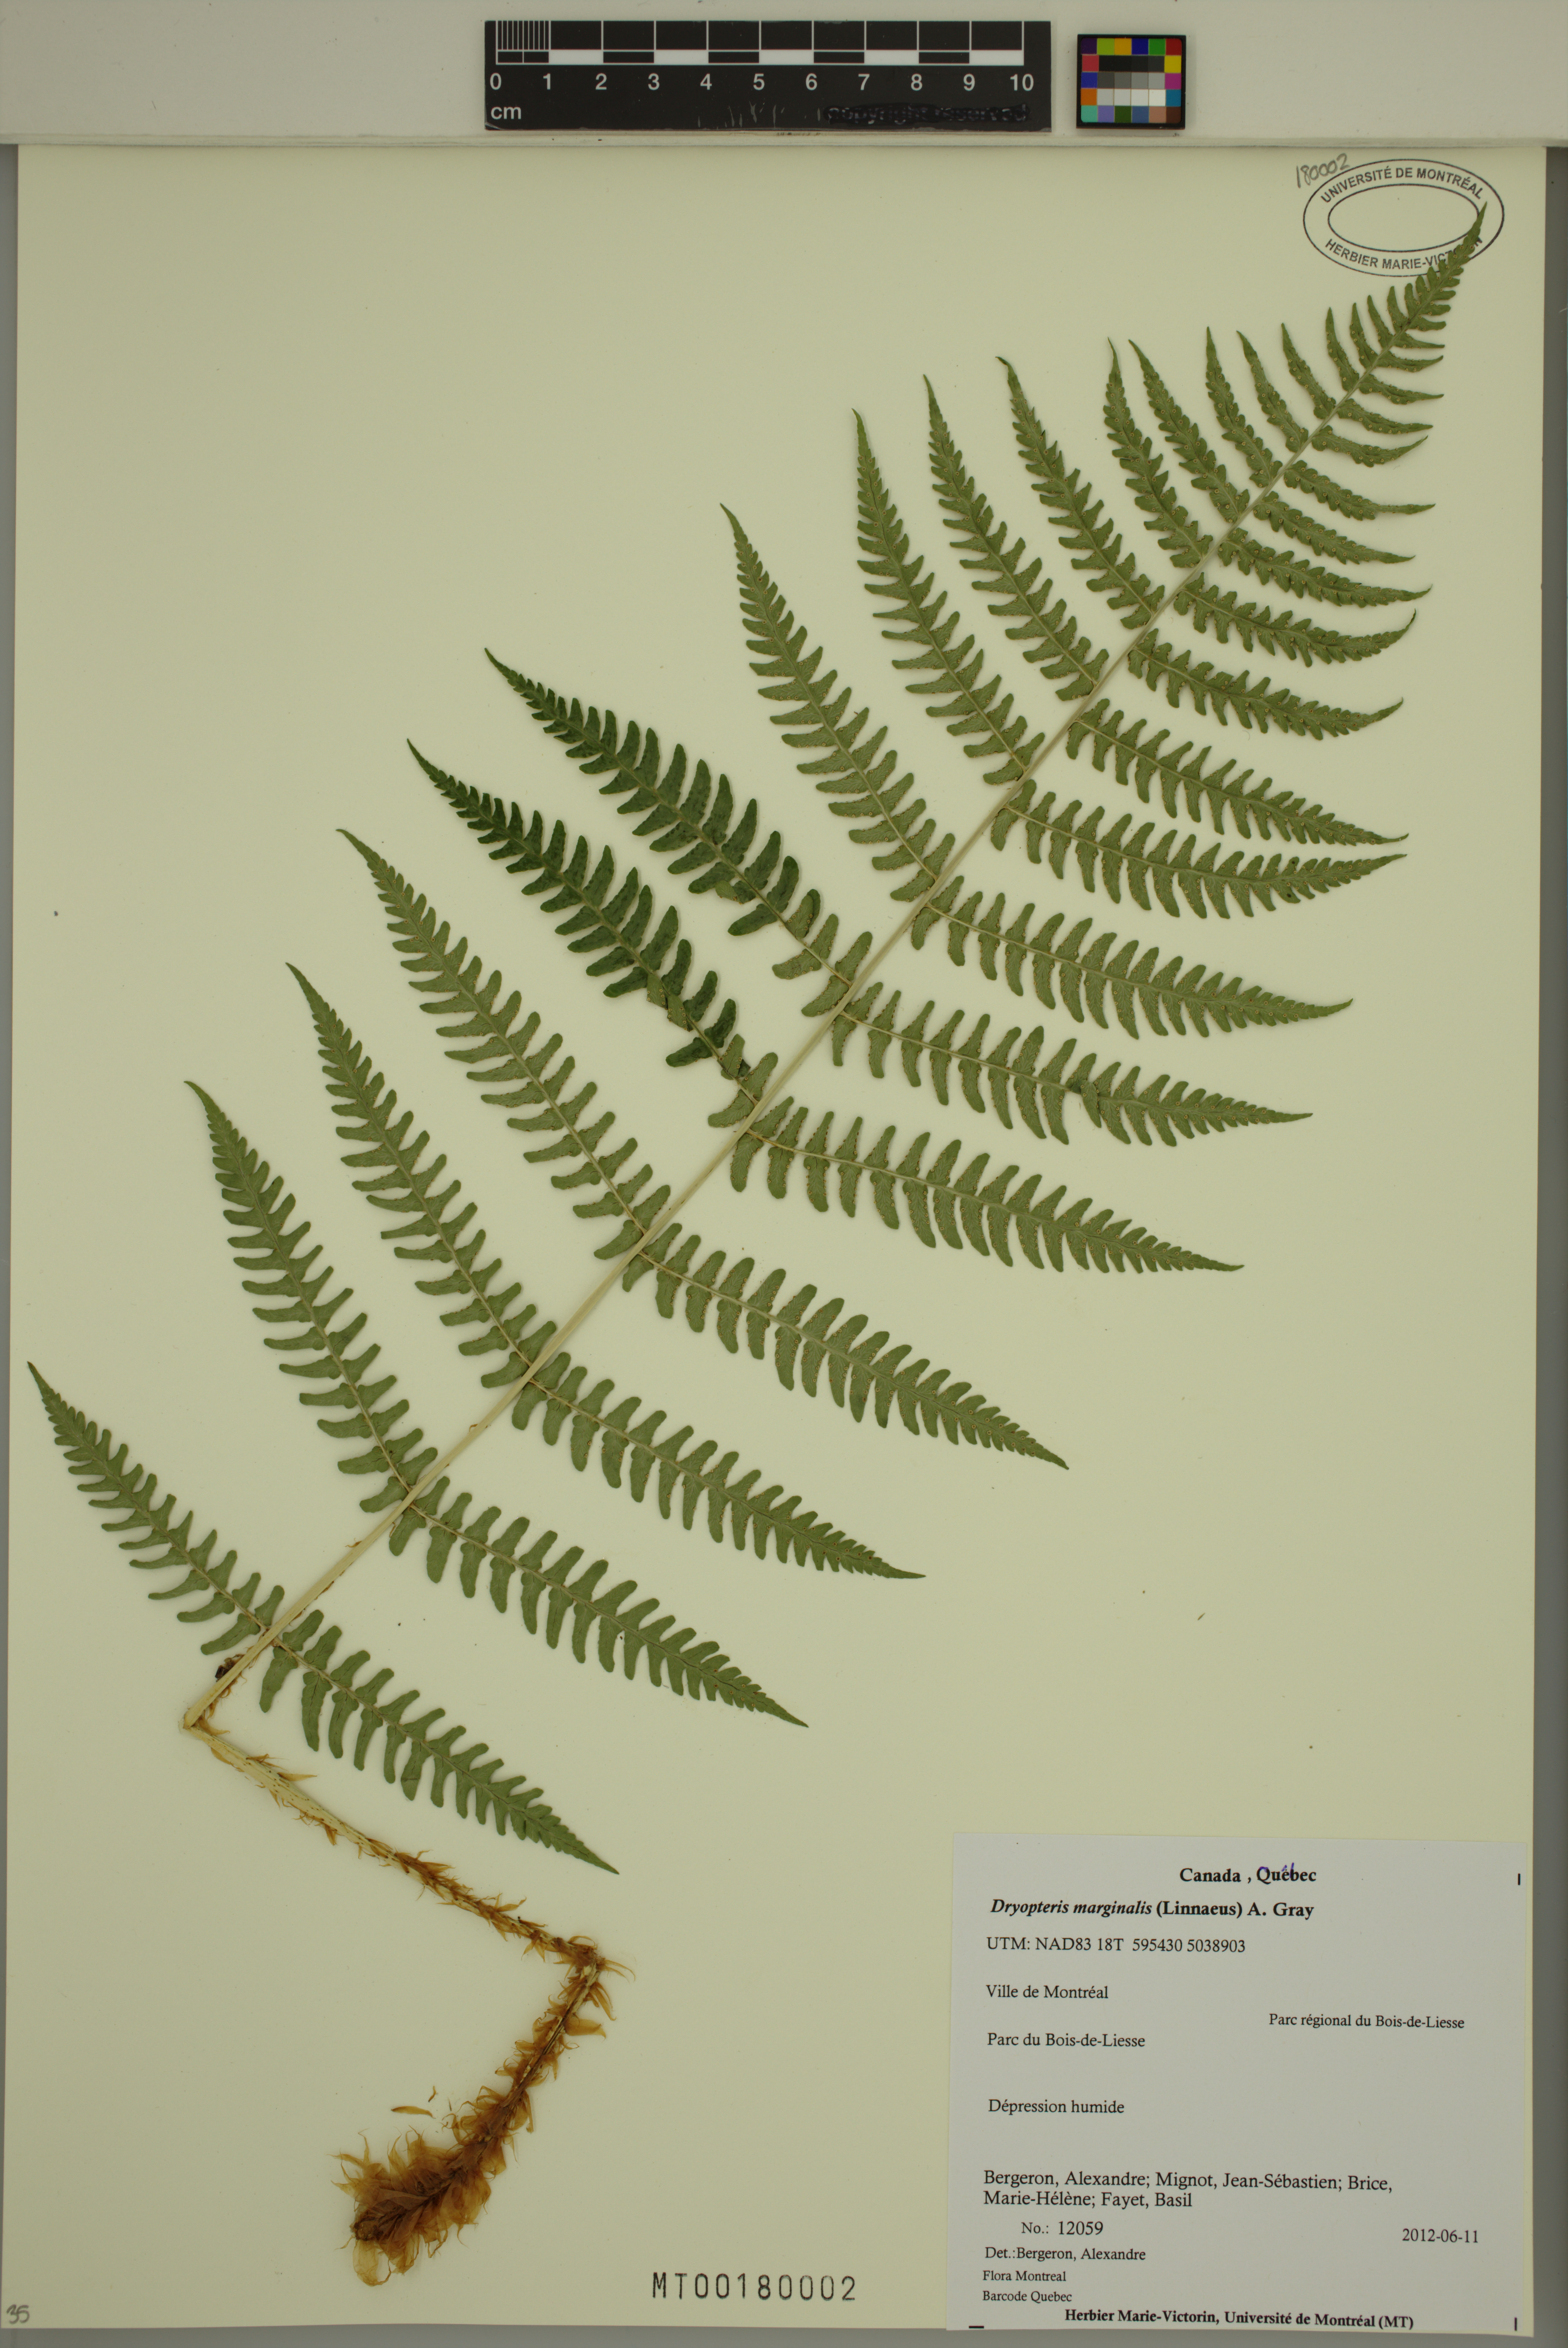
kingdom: Plantae
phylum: Tracheophyta
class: Polypodiopsida
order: Polypodiales
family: Dryopteridaceae
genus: Dryopteris
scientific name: Dryopteris marginalis
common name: Marginal wood fern
